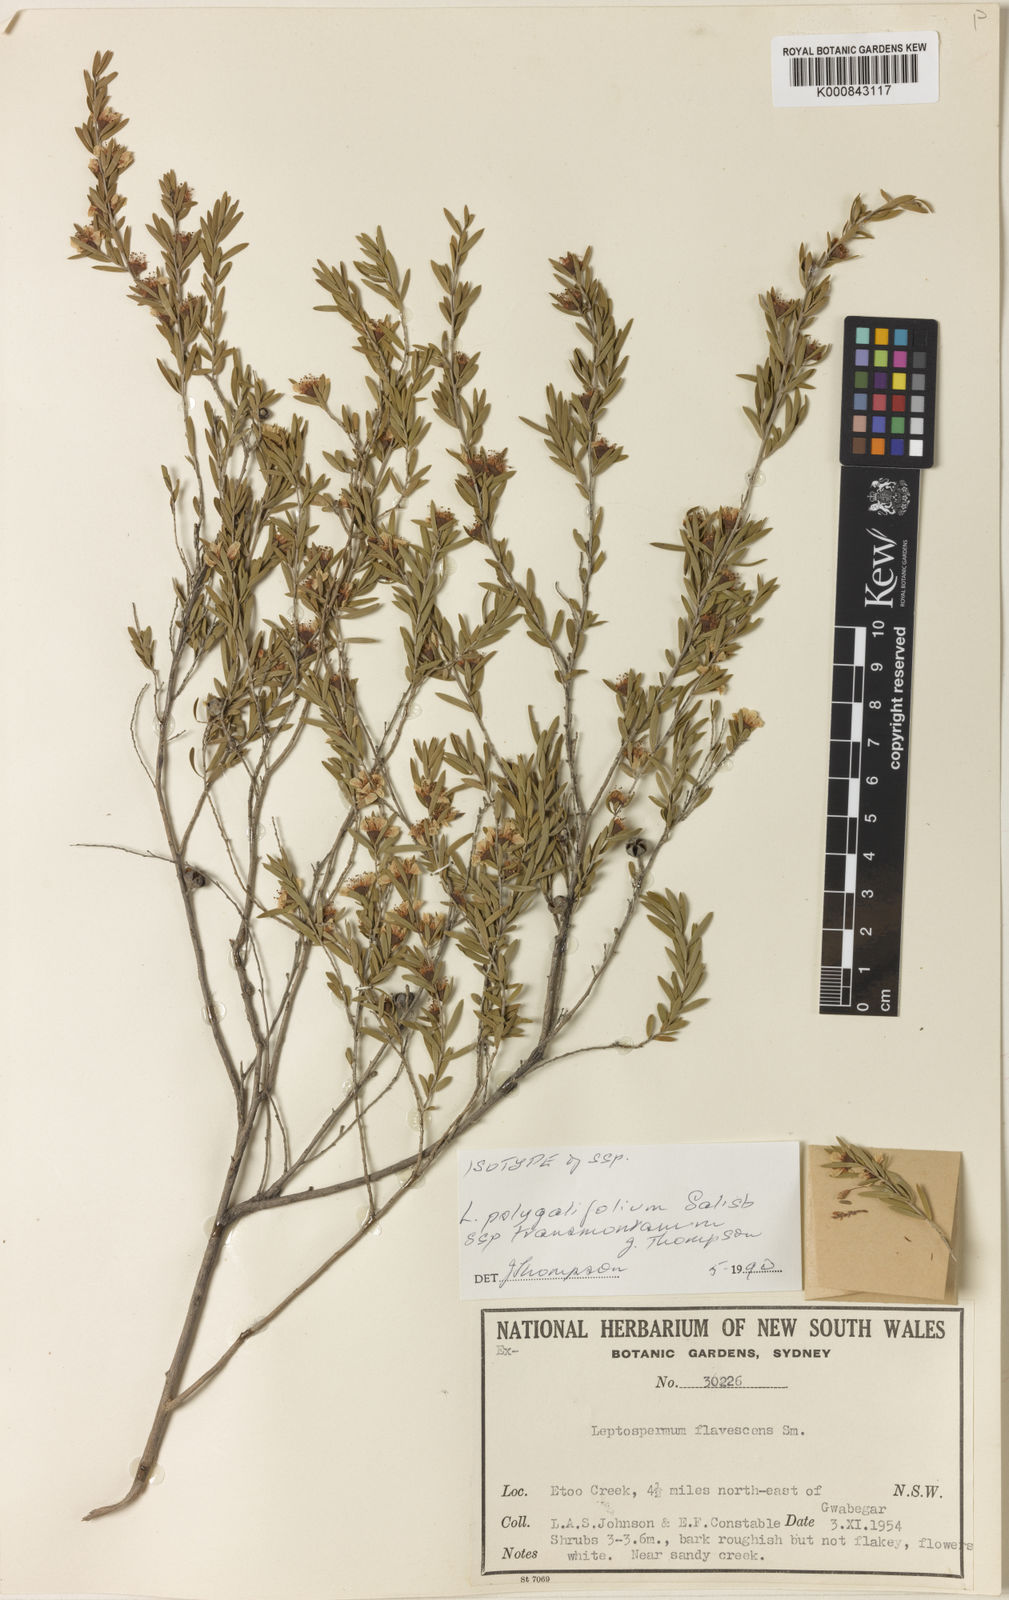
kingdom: Plantae
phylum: Tracheophyta
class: Magnoliopsida
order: Myrtales
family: Myrtaceae
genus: Leptospermum
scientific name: Leptospermum polygalifolium
